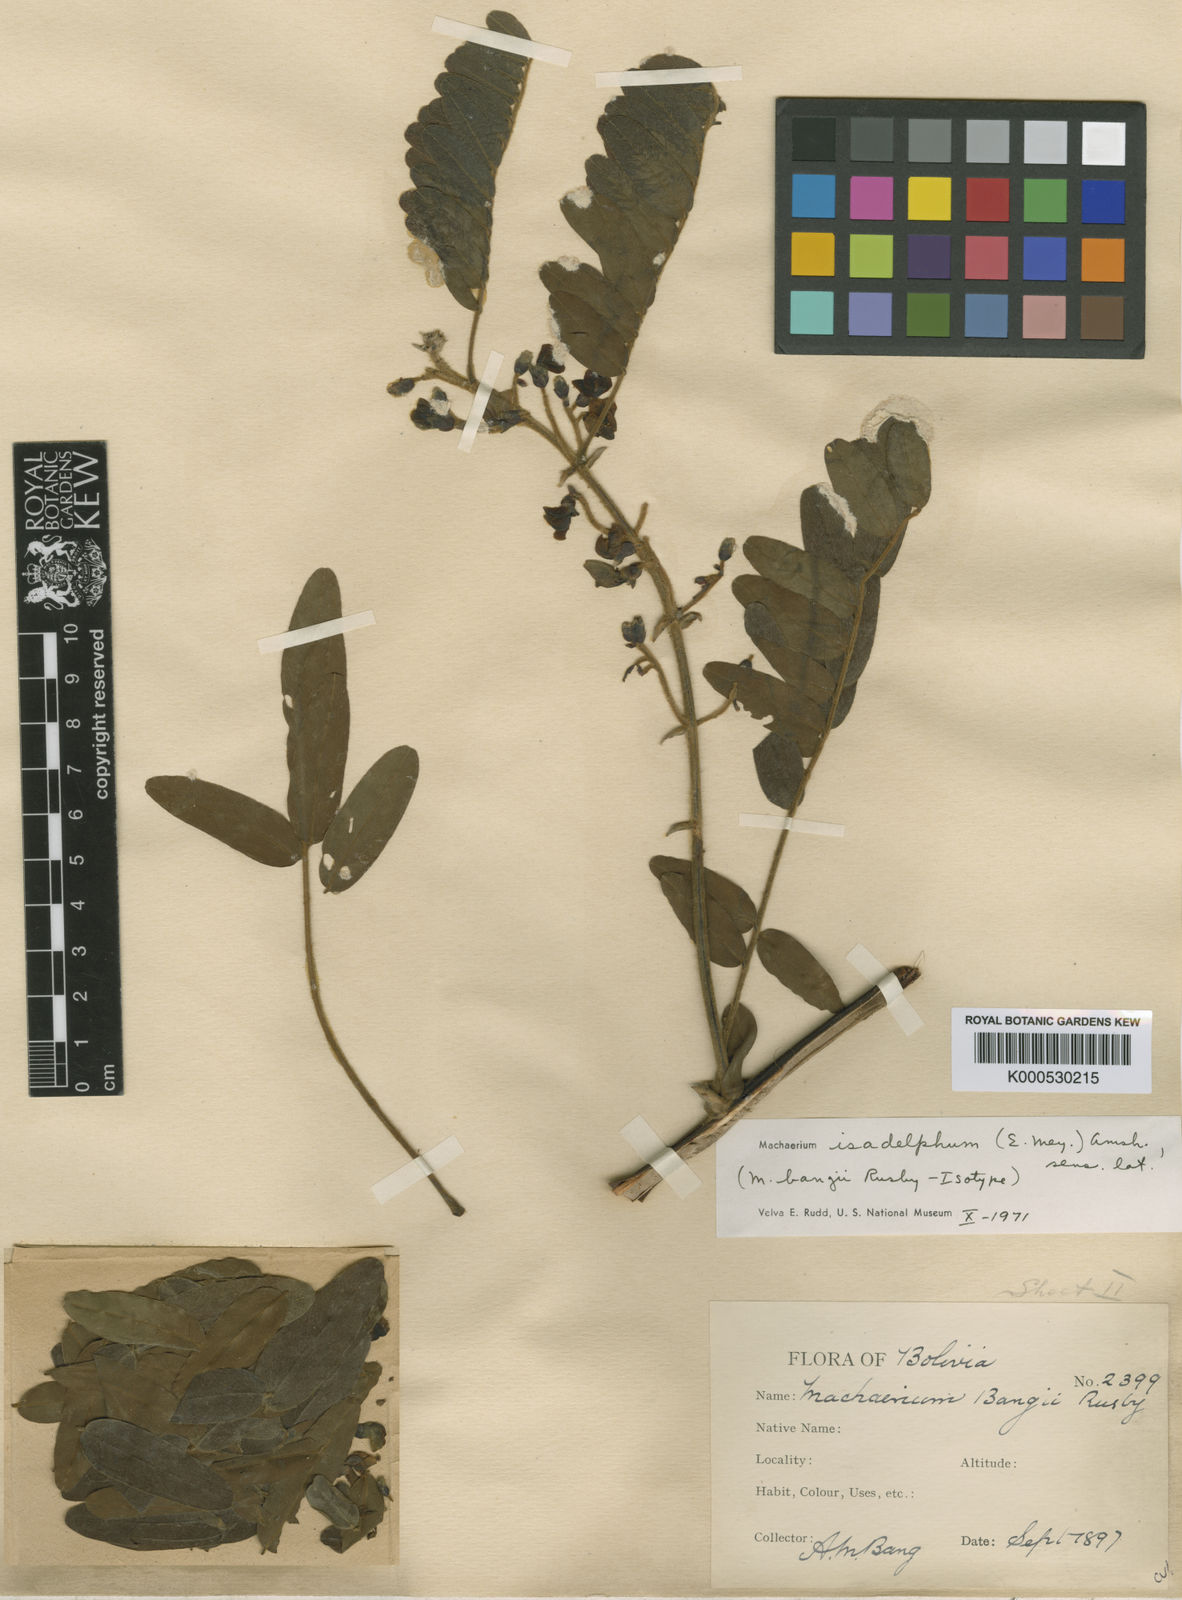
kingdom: Plantae
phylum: Tracheophyta
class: Magnoliopsida
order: Fabales
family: Fabaceae
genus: Machaerium
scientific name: Machaerium isadelphum
